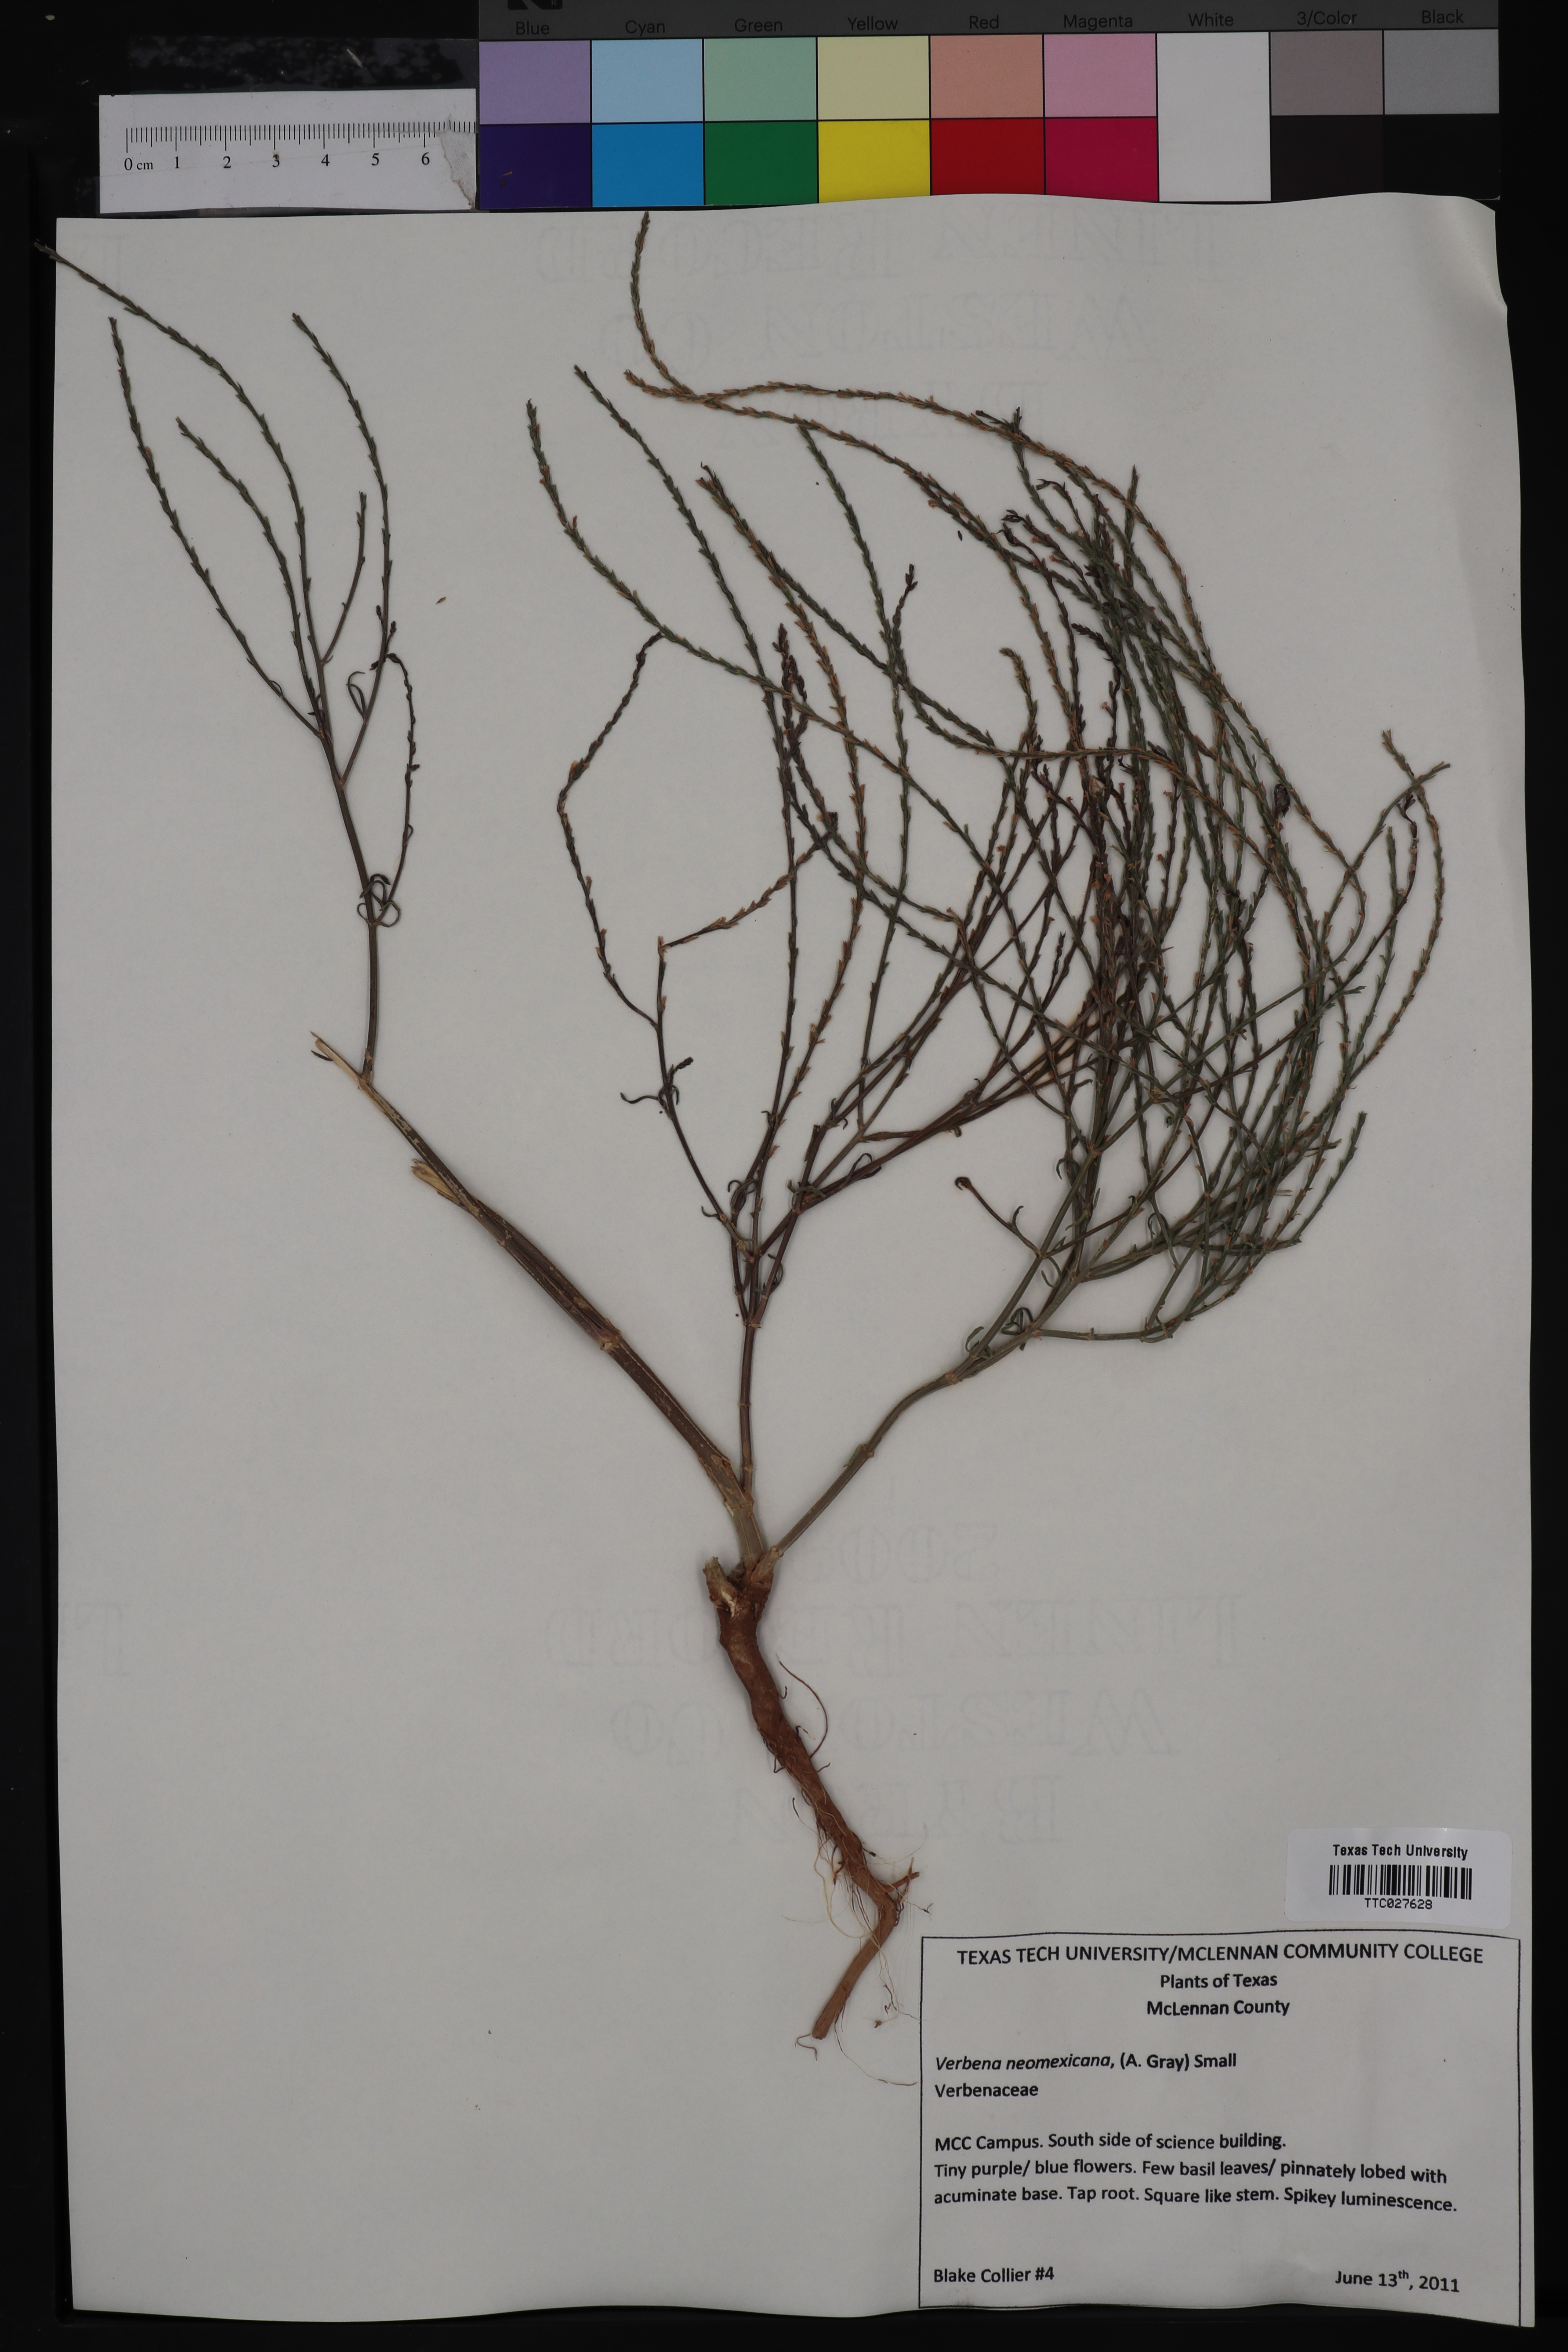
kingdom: Plantae
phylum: Tracheophyta
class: Magnoliopsida
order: Lamiales
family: Verbenaceae
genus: Verbena
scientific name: Verbena neomexicana
